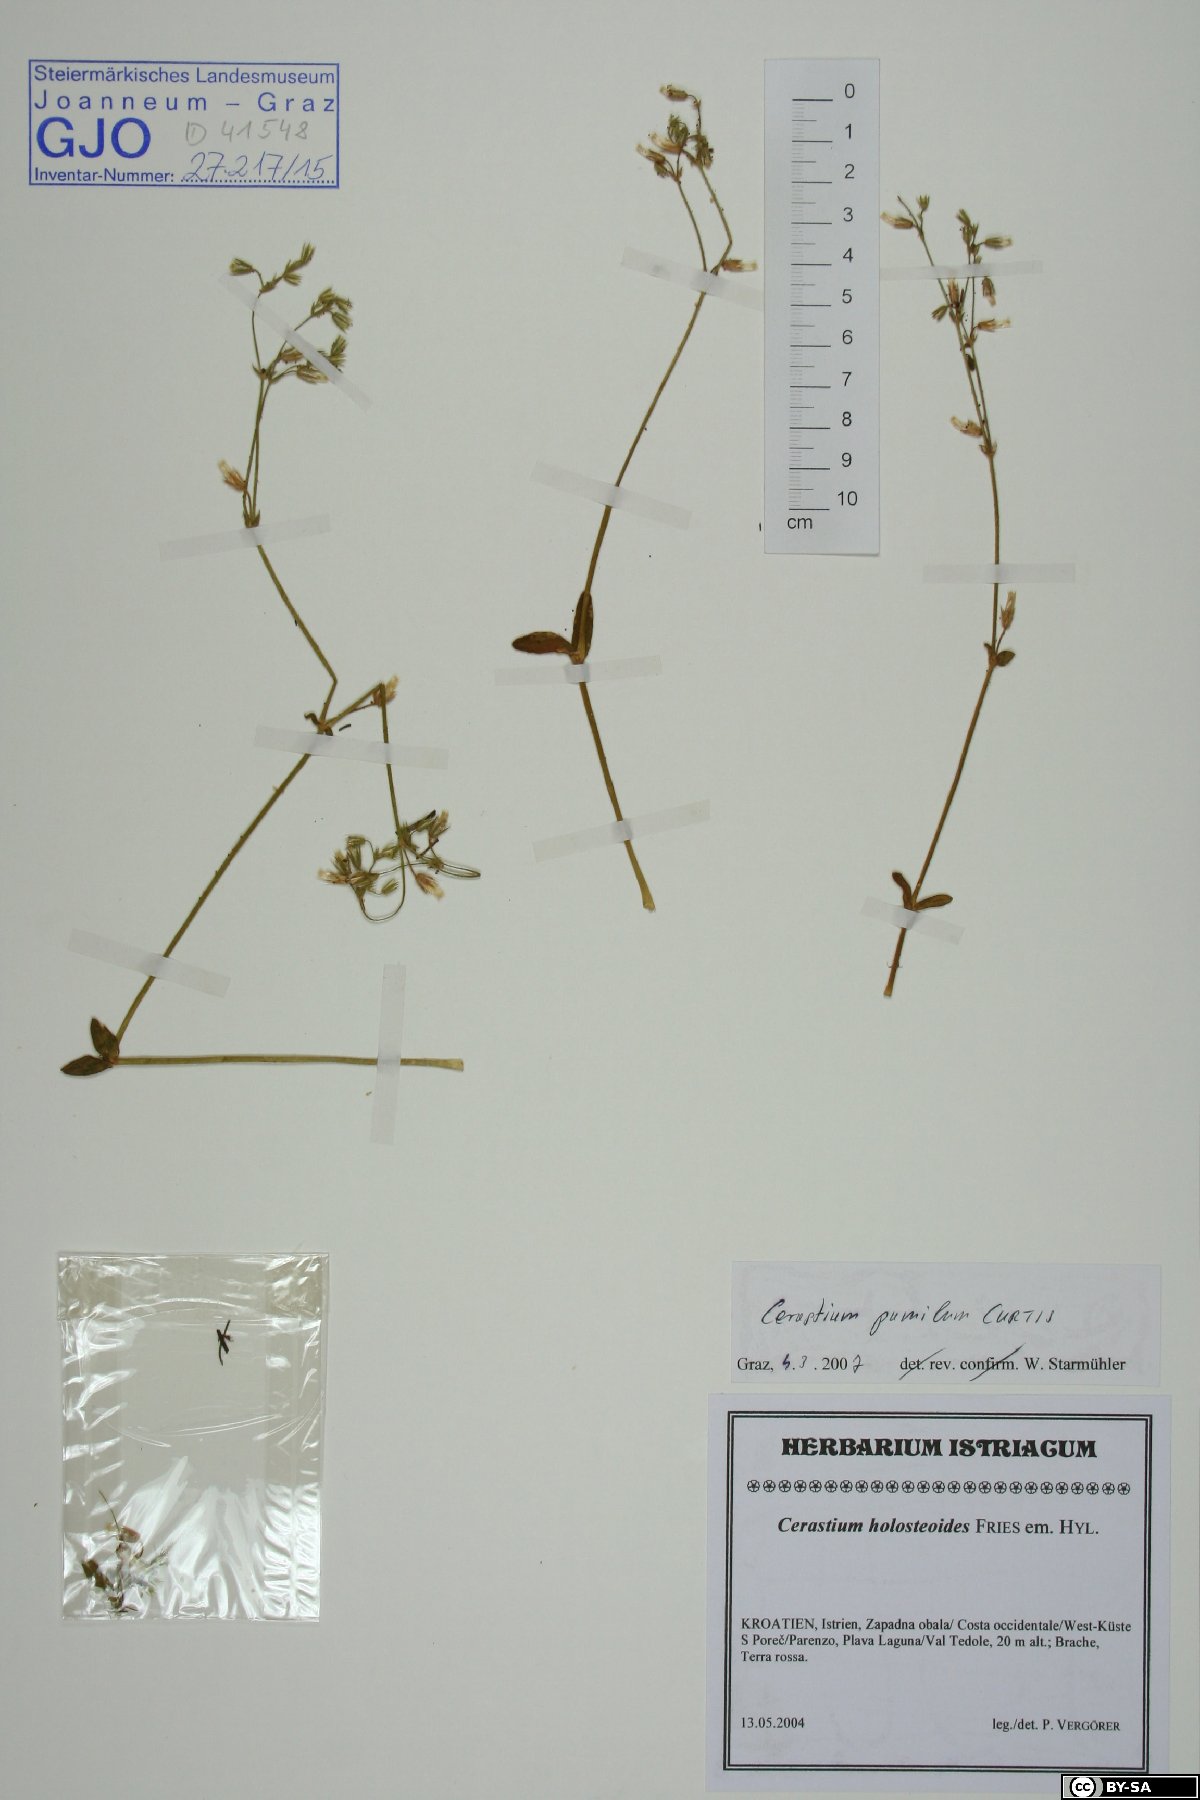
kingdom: Plantae
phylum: Tracheophyta
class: Magnoliopsida
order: Caryophyllales
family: Caryophyllaceae
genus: Cerastium
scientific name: Cerastium pumilum
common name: Dwarf mouse-ear
